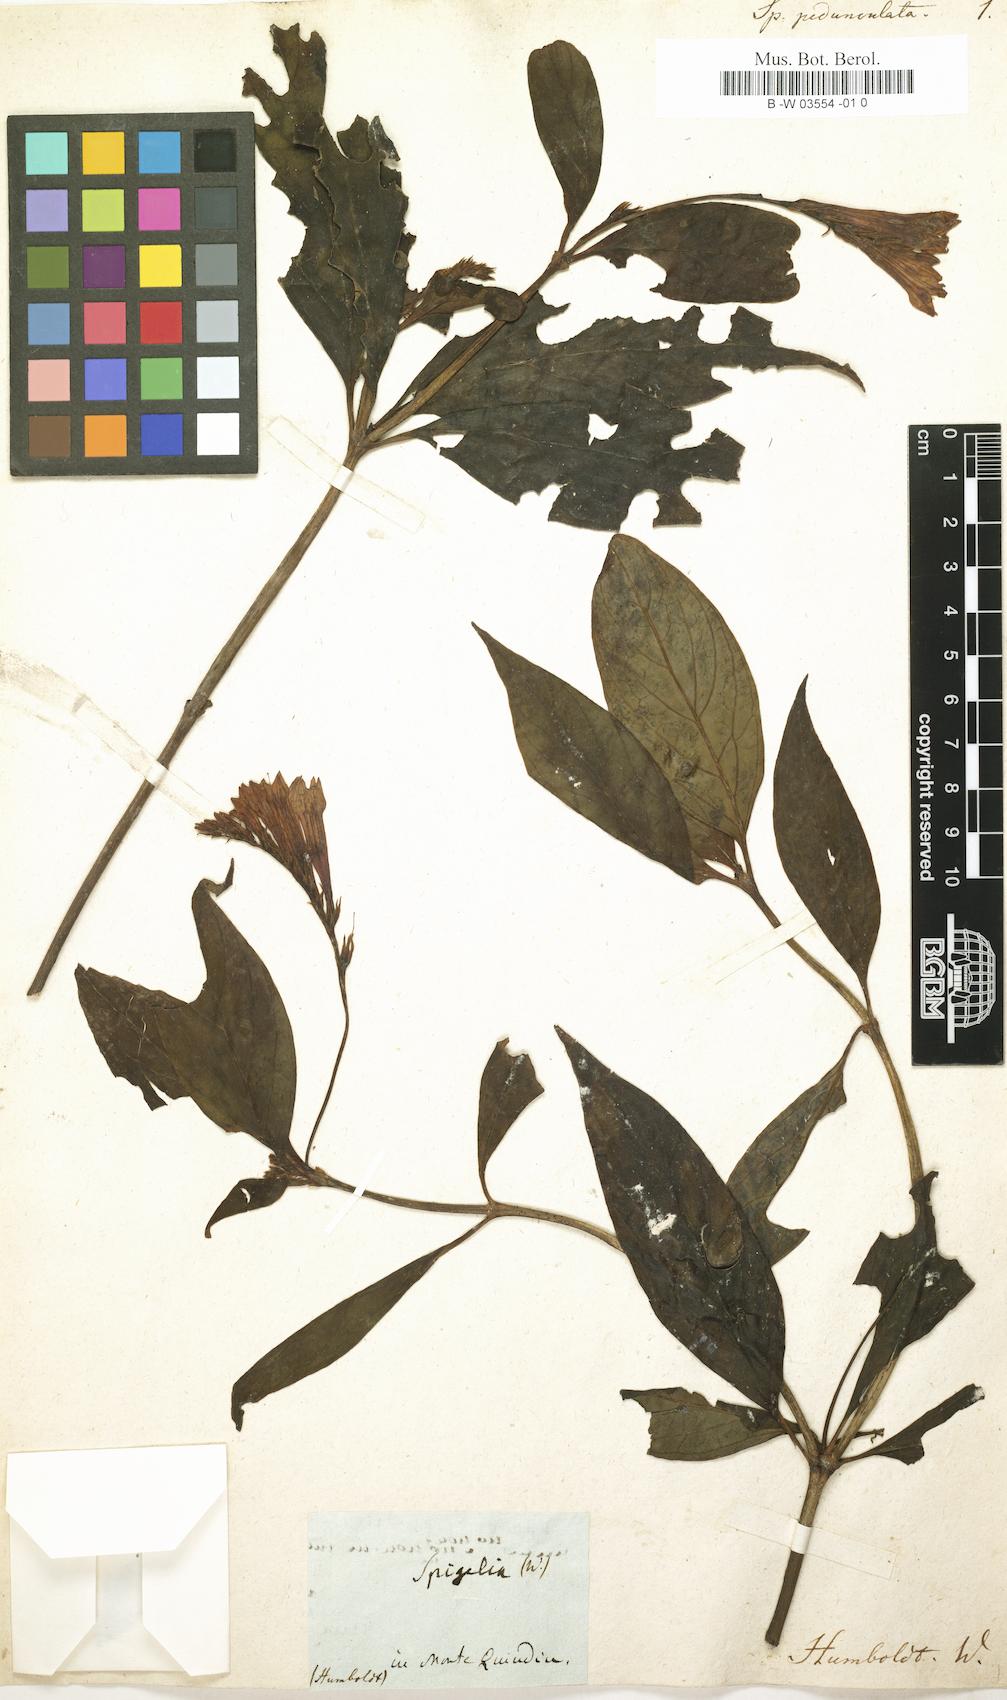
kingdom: Plantae
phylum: Tracheophyta
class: Magnoliopsida
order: Gentianales
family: Loganiaceae
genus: Spigelia
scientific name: Spigelia pedunculata
